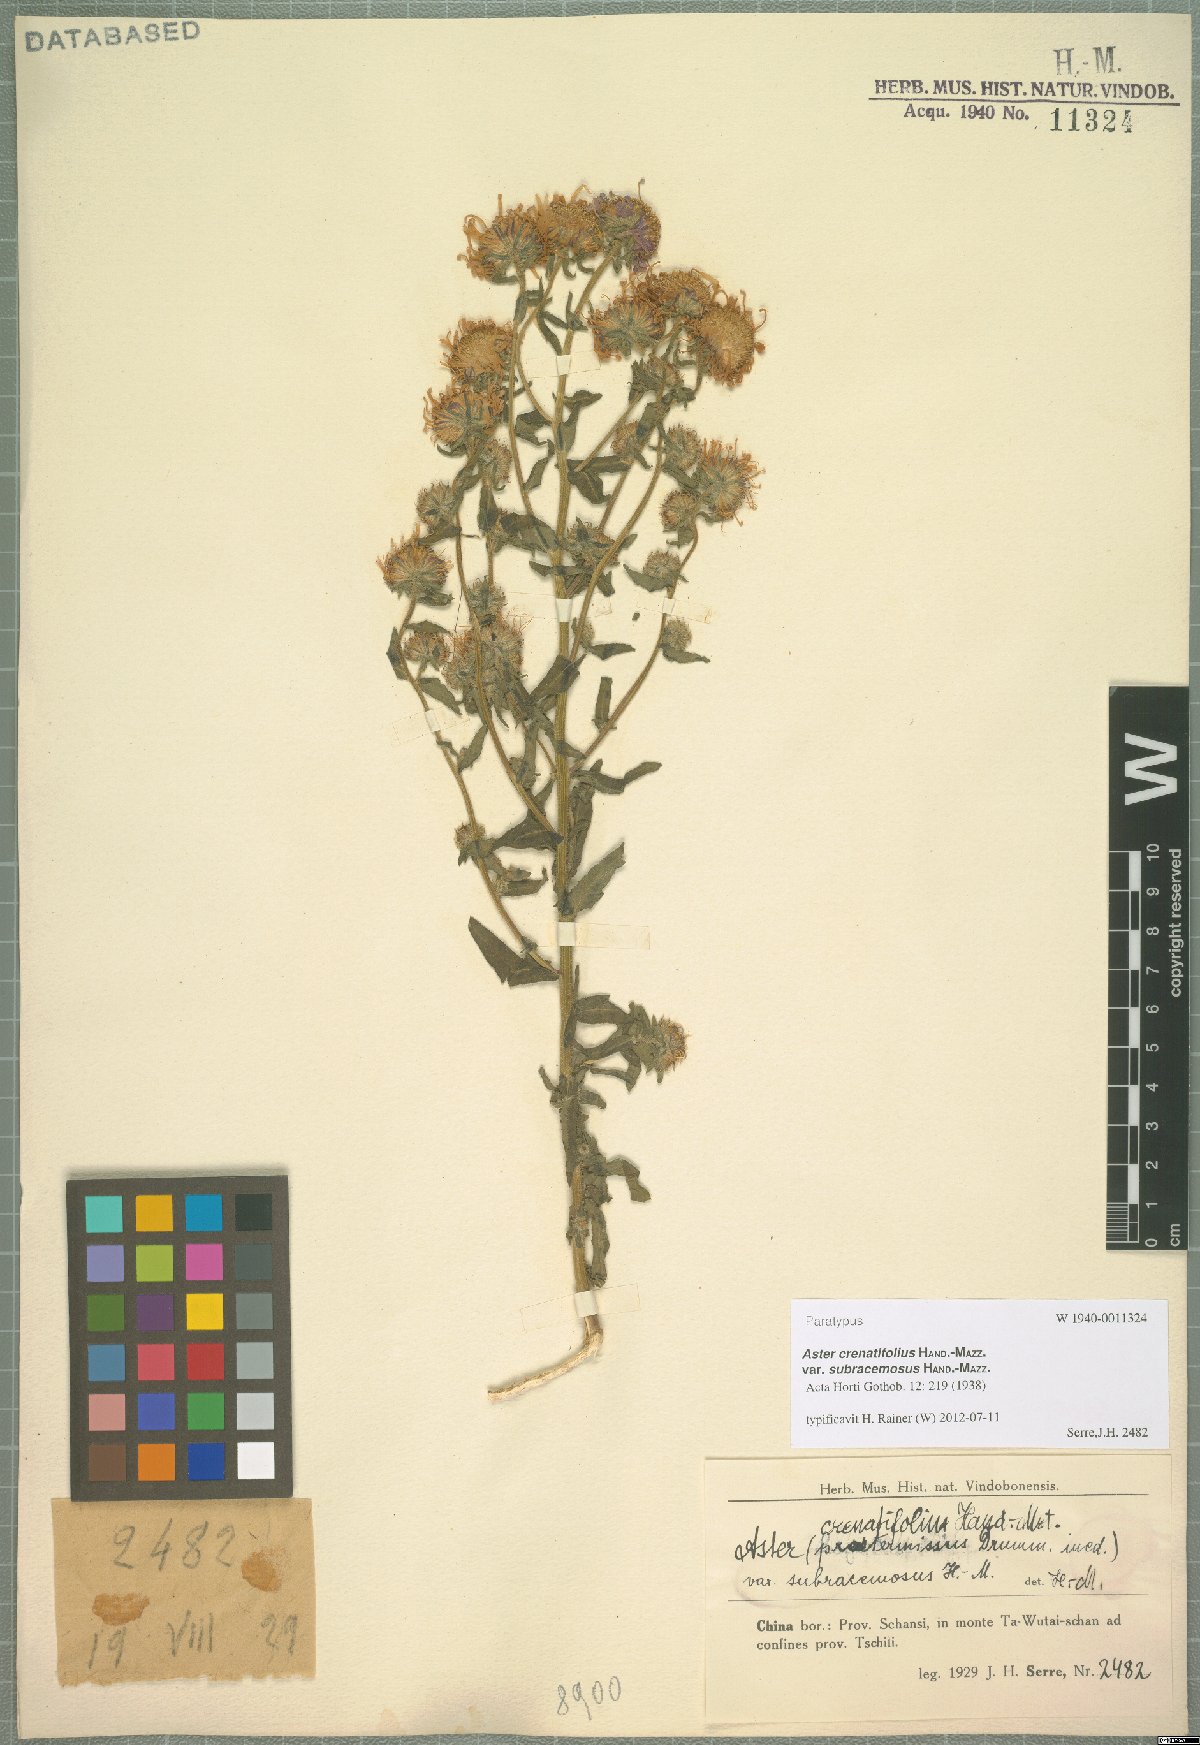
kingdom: Plantae
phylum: Tracheophyta
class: Magnoliopsida
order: Asterales
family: Asteraceae
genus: Heteropappus
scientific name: Heteropappus crenatifolius
